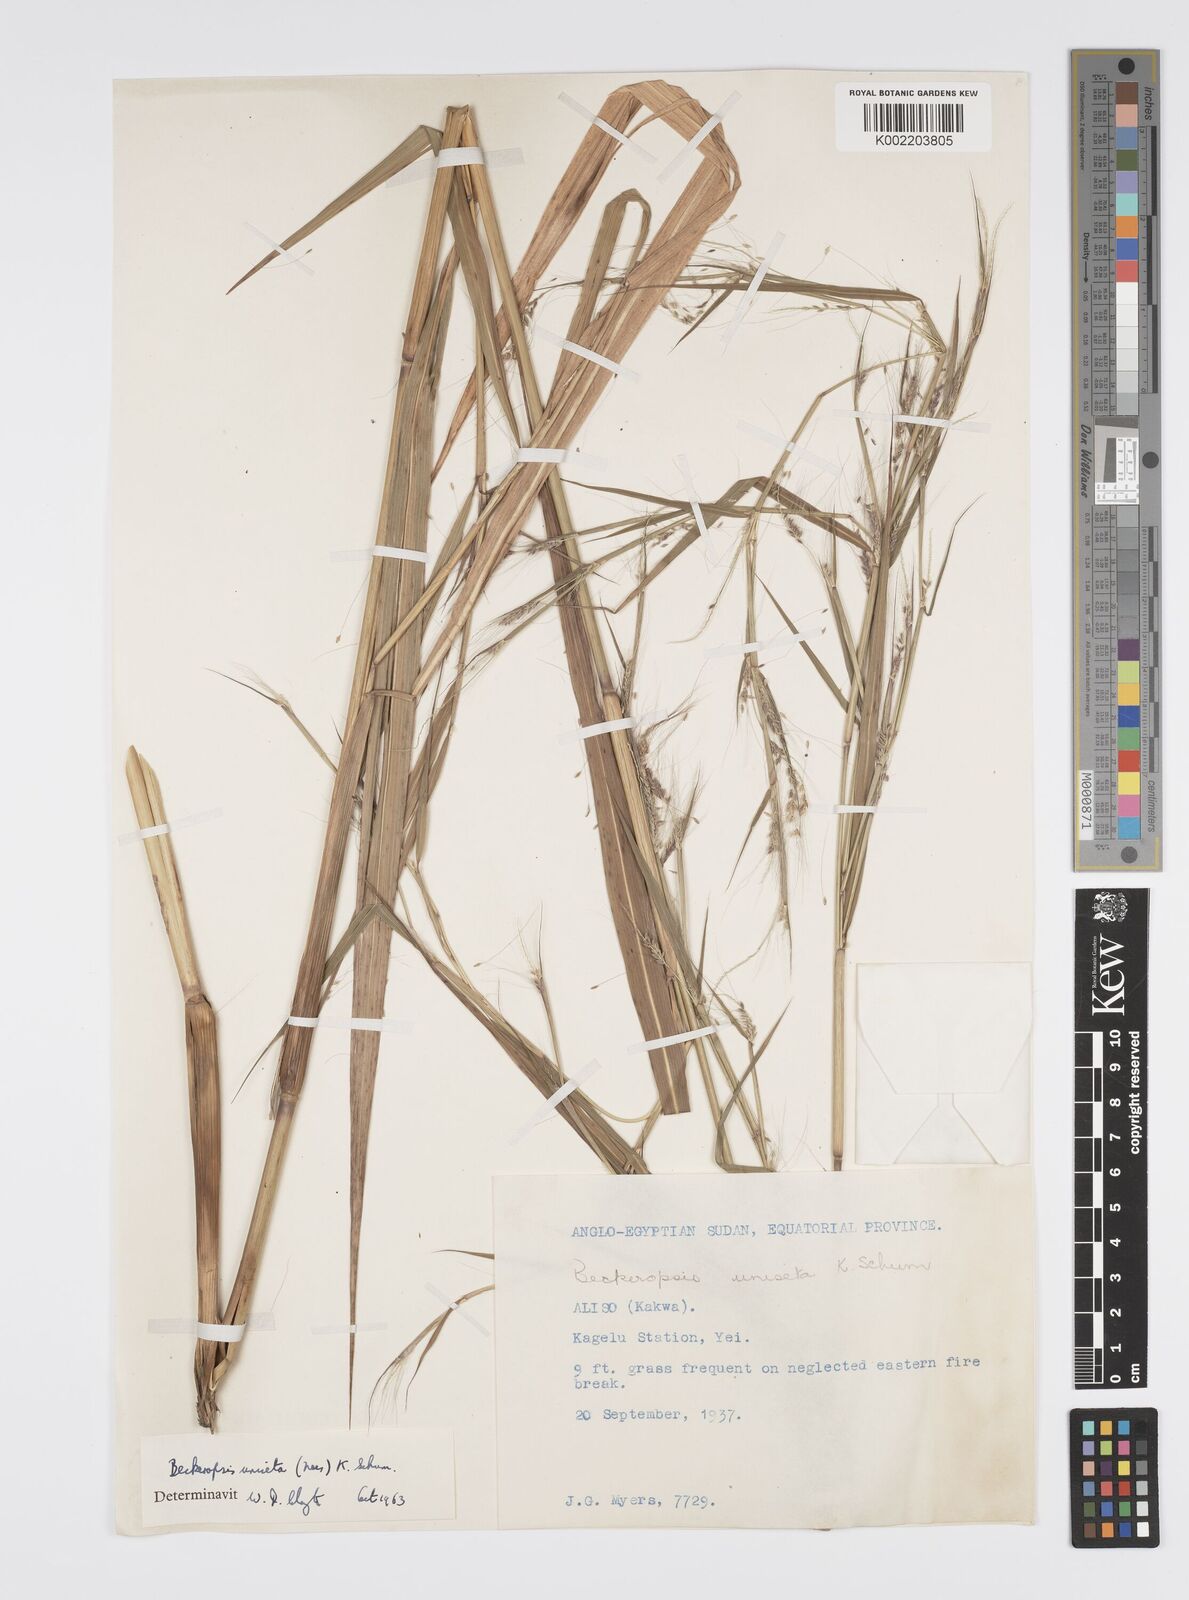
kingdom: Plantae
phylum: Tracheophyta
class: Liliopsida
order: Poales
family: Poaceae
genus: Cenchrus
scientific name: Cenchrus unisetus
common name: Natal grass
